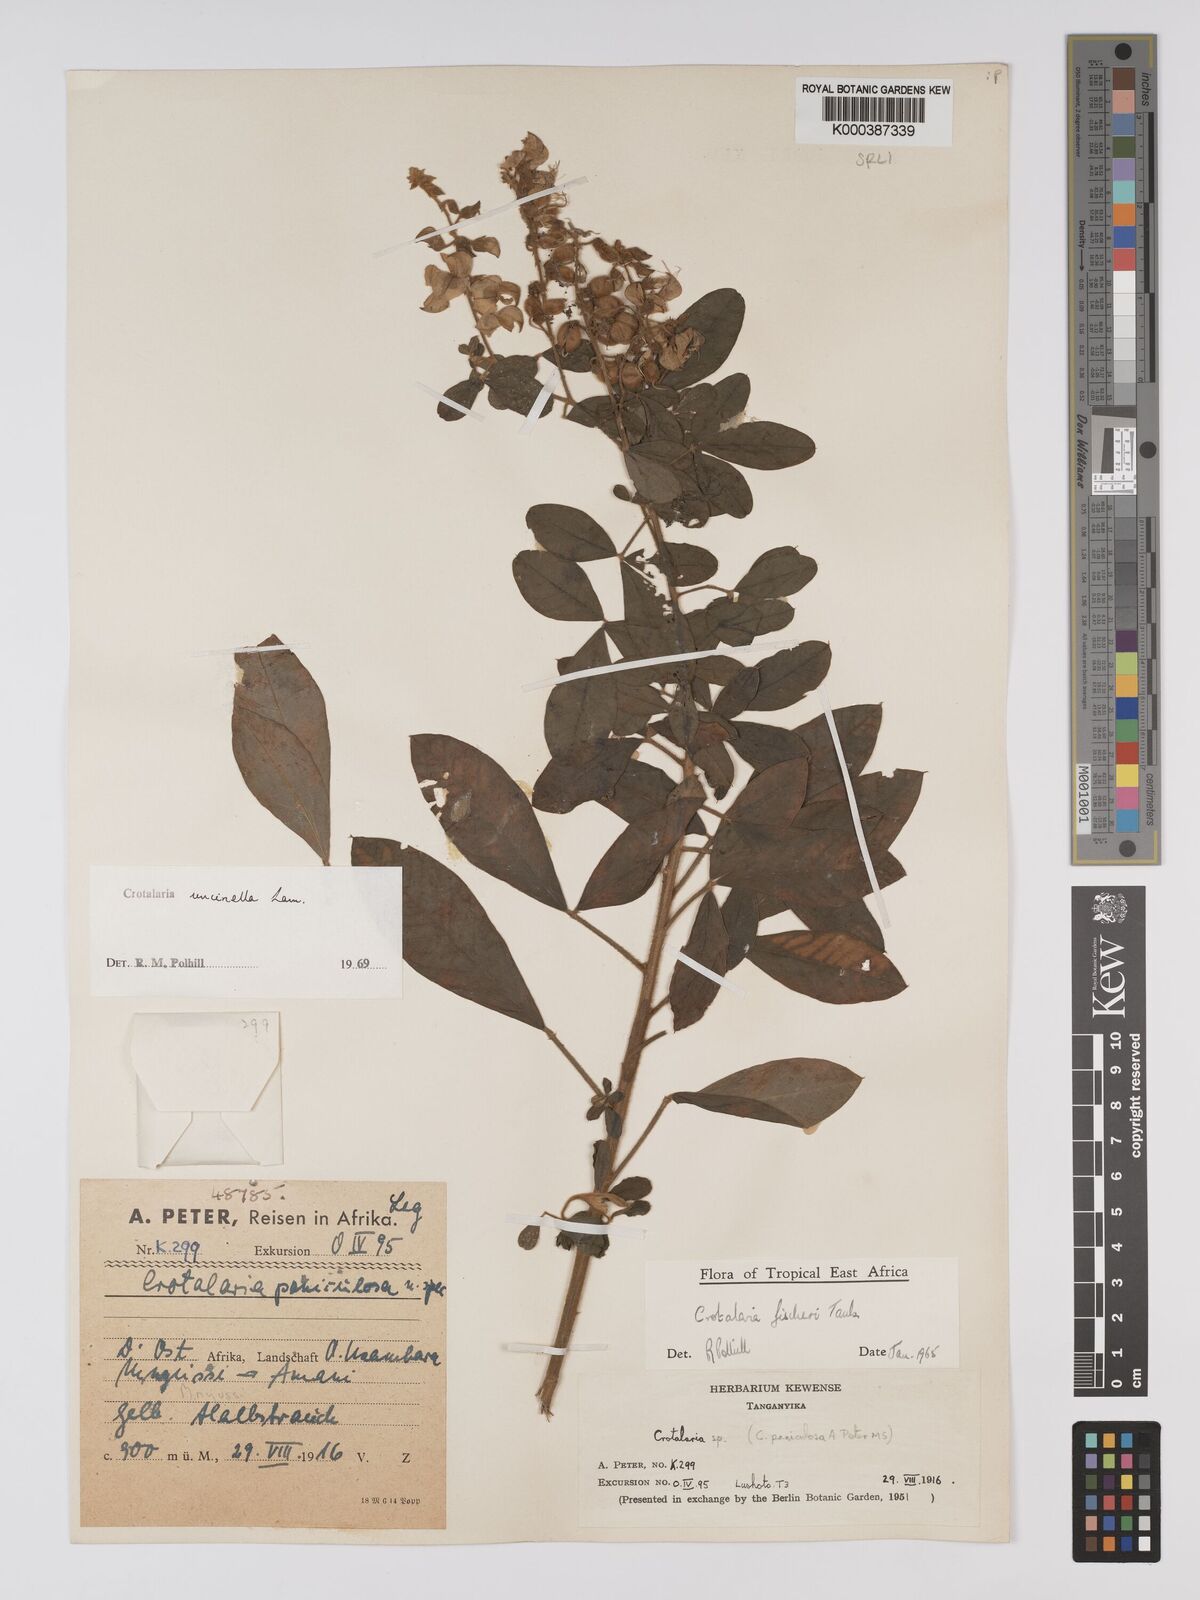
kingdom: Plantae
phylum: Tracheophyta
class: Magnoliopsida
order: Fabales
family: Fabaceae
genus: Crotalaria
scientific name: Crotalaria uncinella
